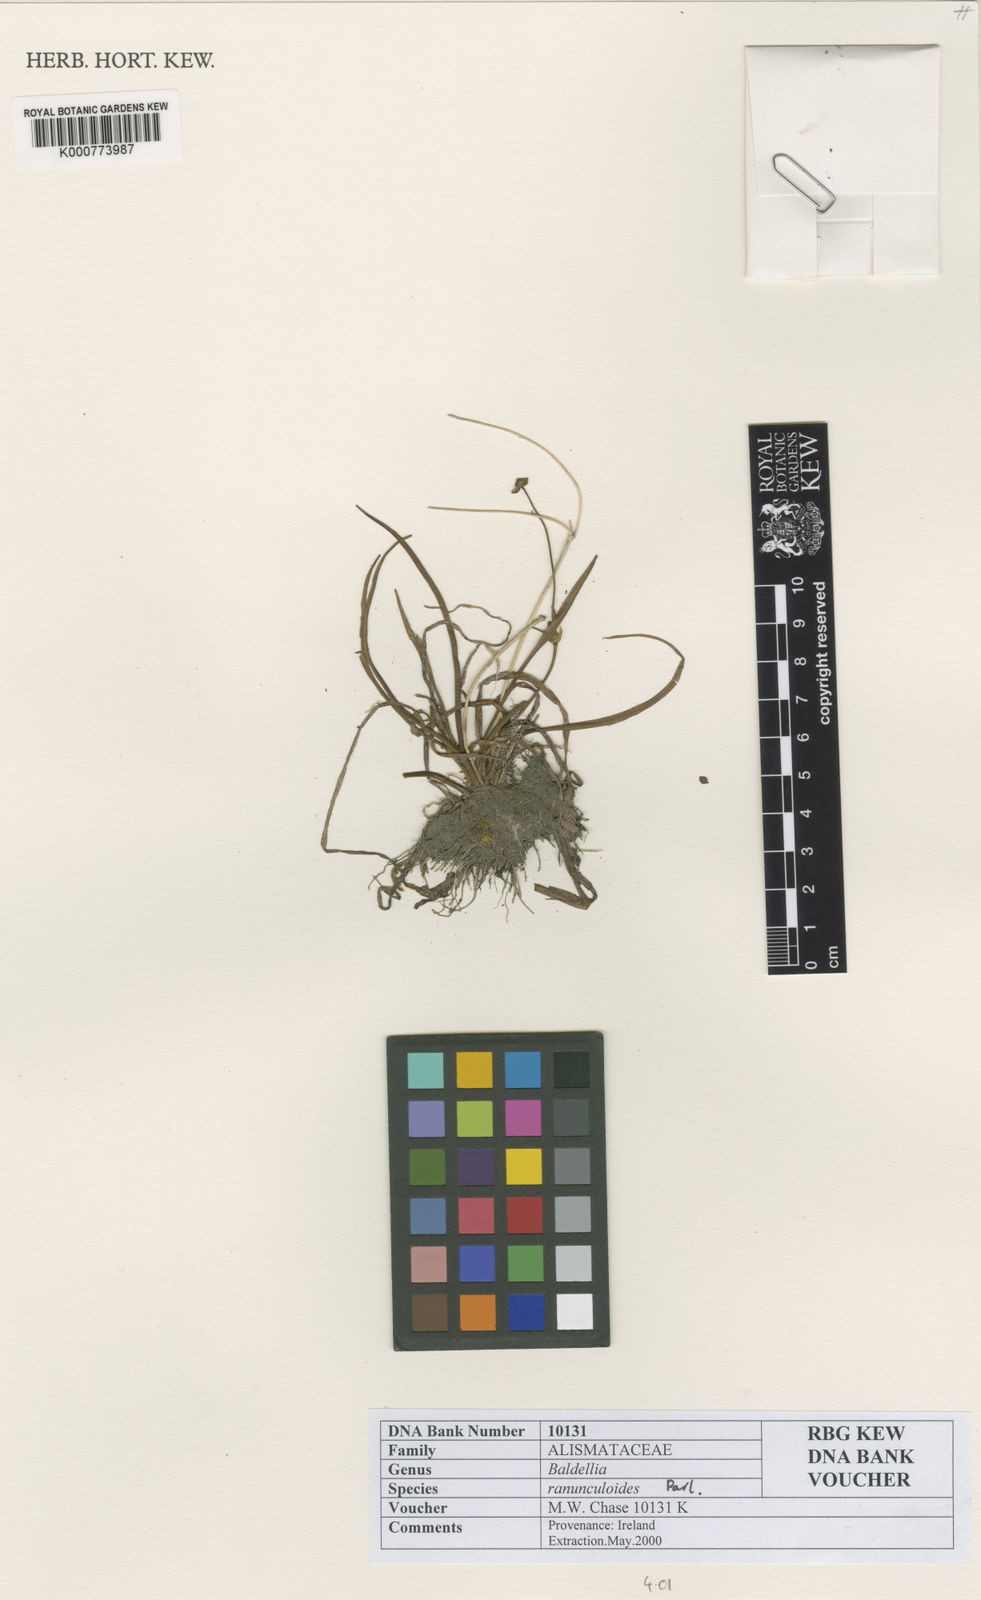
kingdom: Plantae
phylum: Tracheophyta
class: Liliopsida
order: Alismatales
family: Alismataceae
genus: Baldellia
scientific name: Baldellia ranunculoides
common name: Lesser water-plantain
